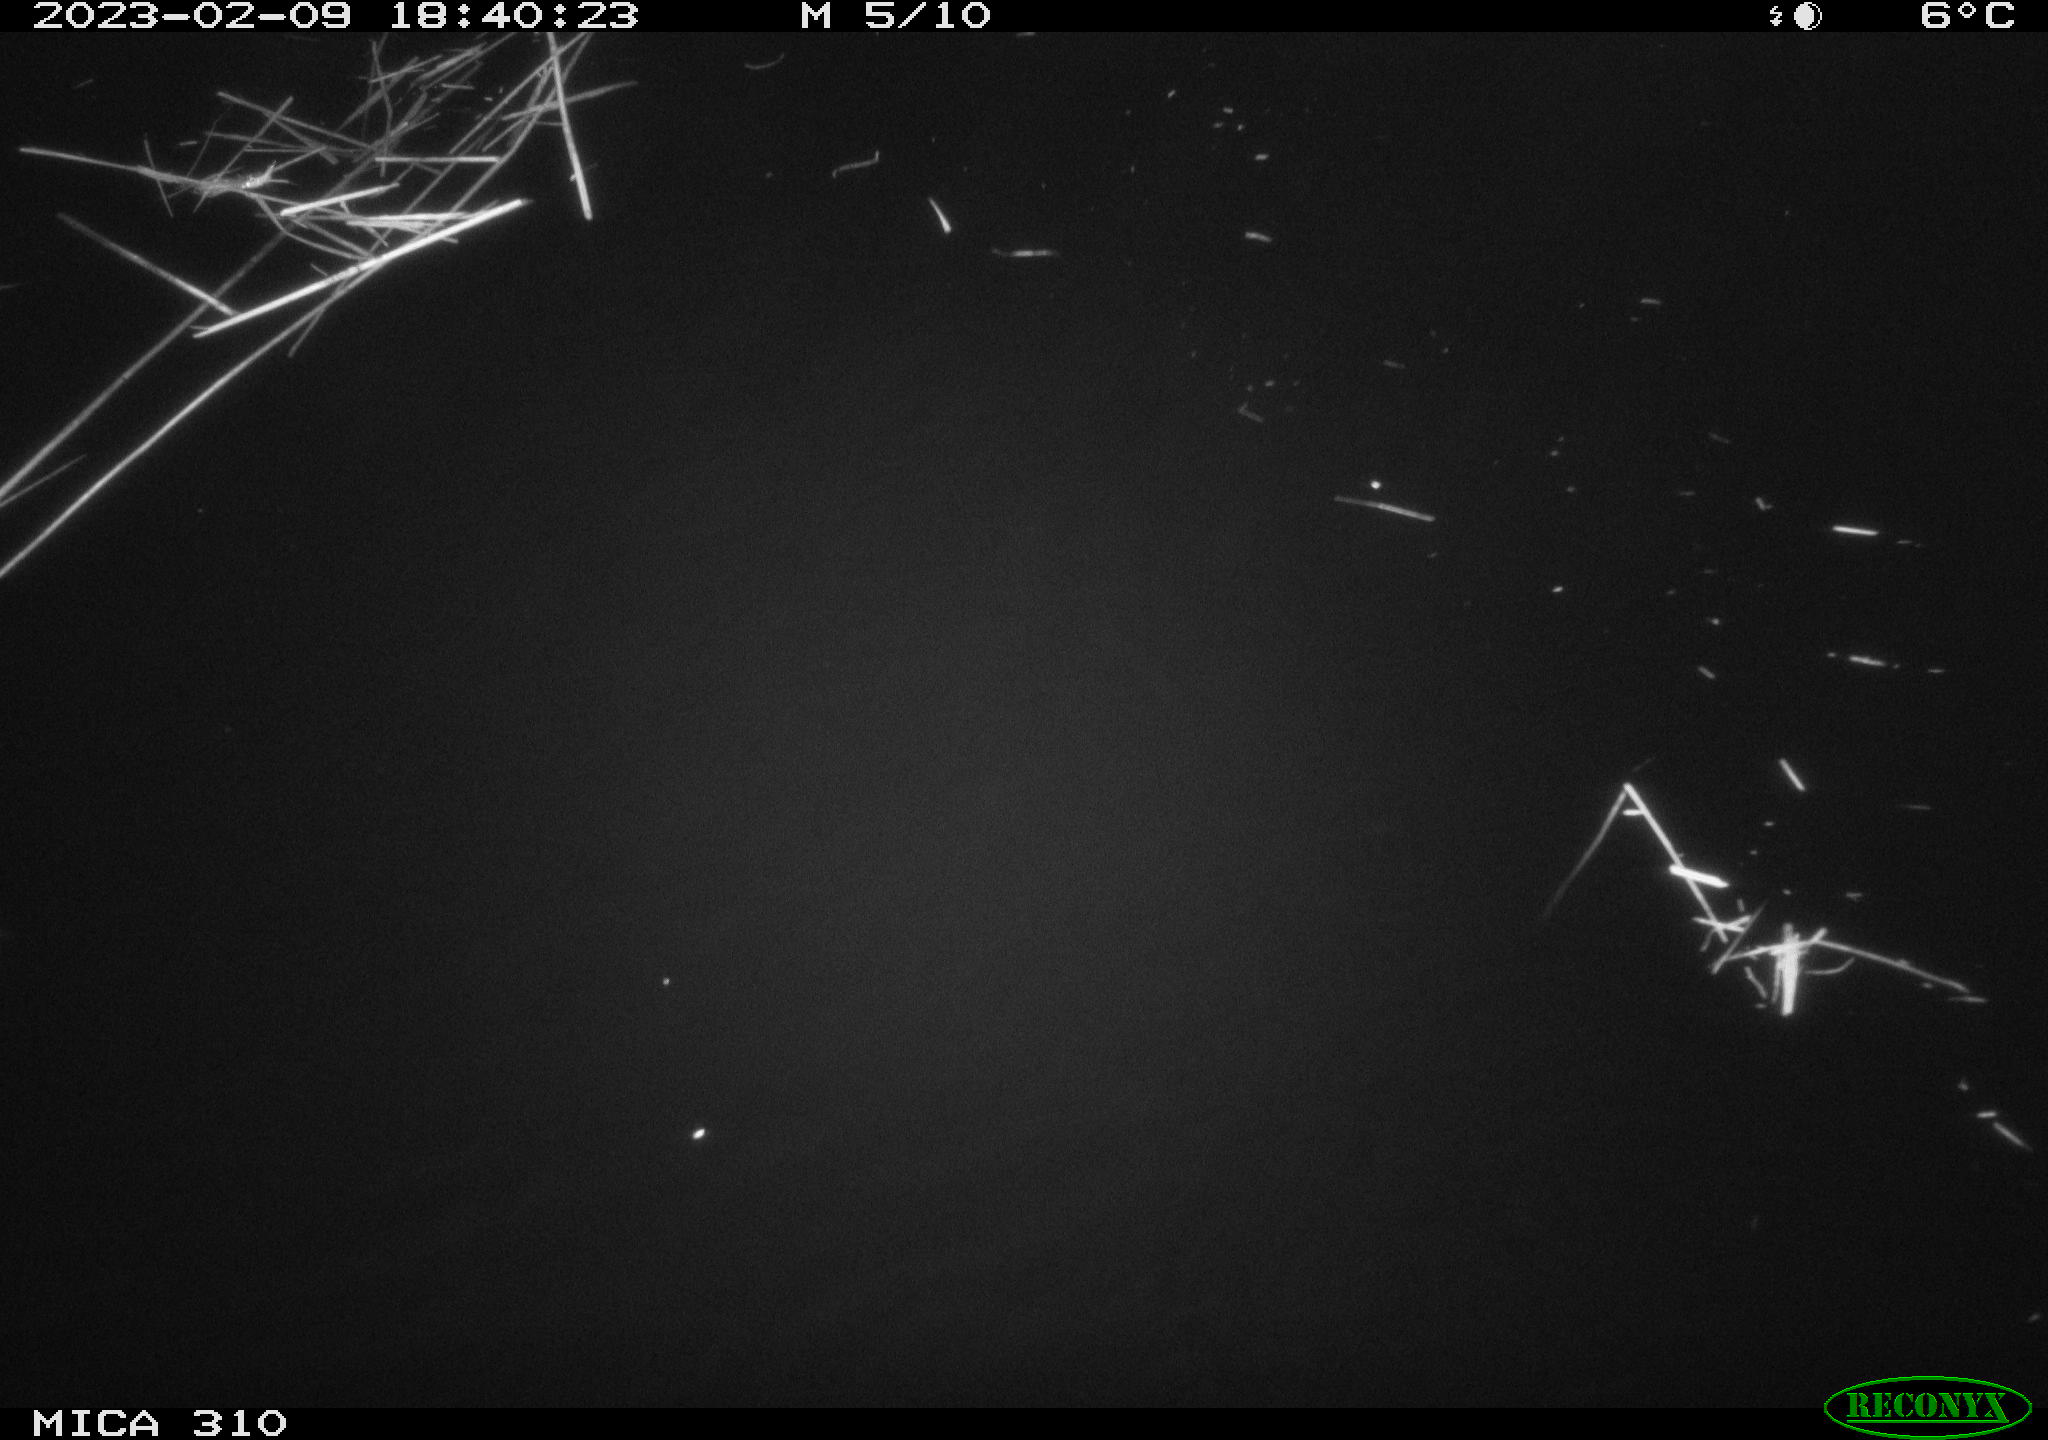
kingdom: Animalia
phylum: Chordata
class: Aves
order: Anseriformes
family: Anatidae
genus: Anas
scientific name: Anas
